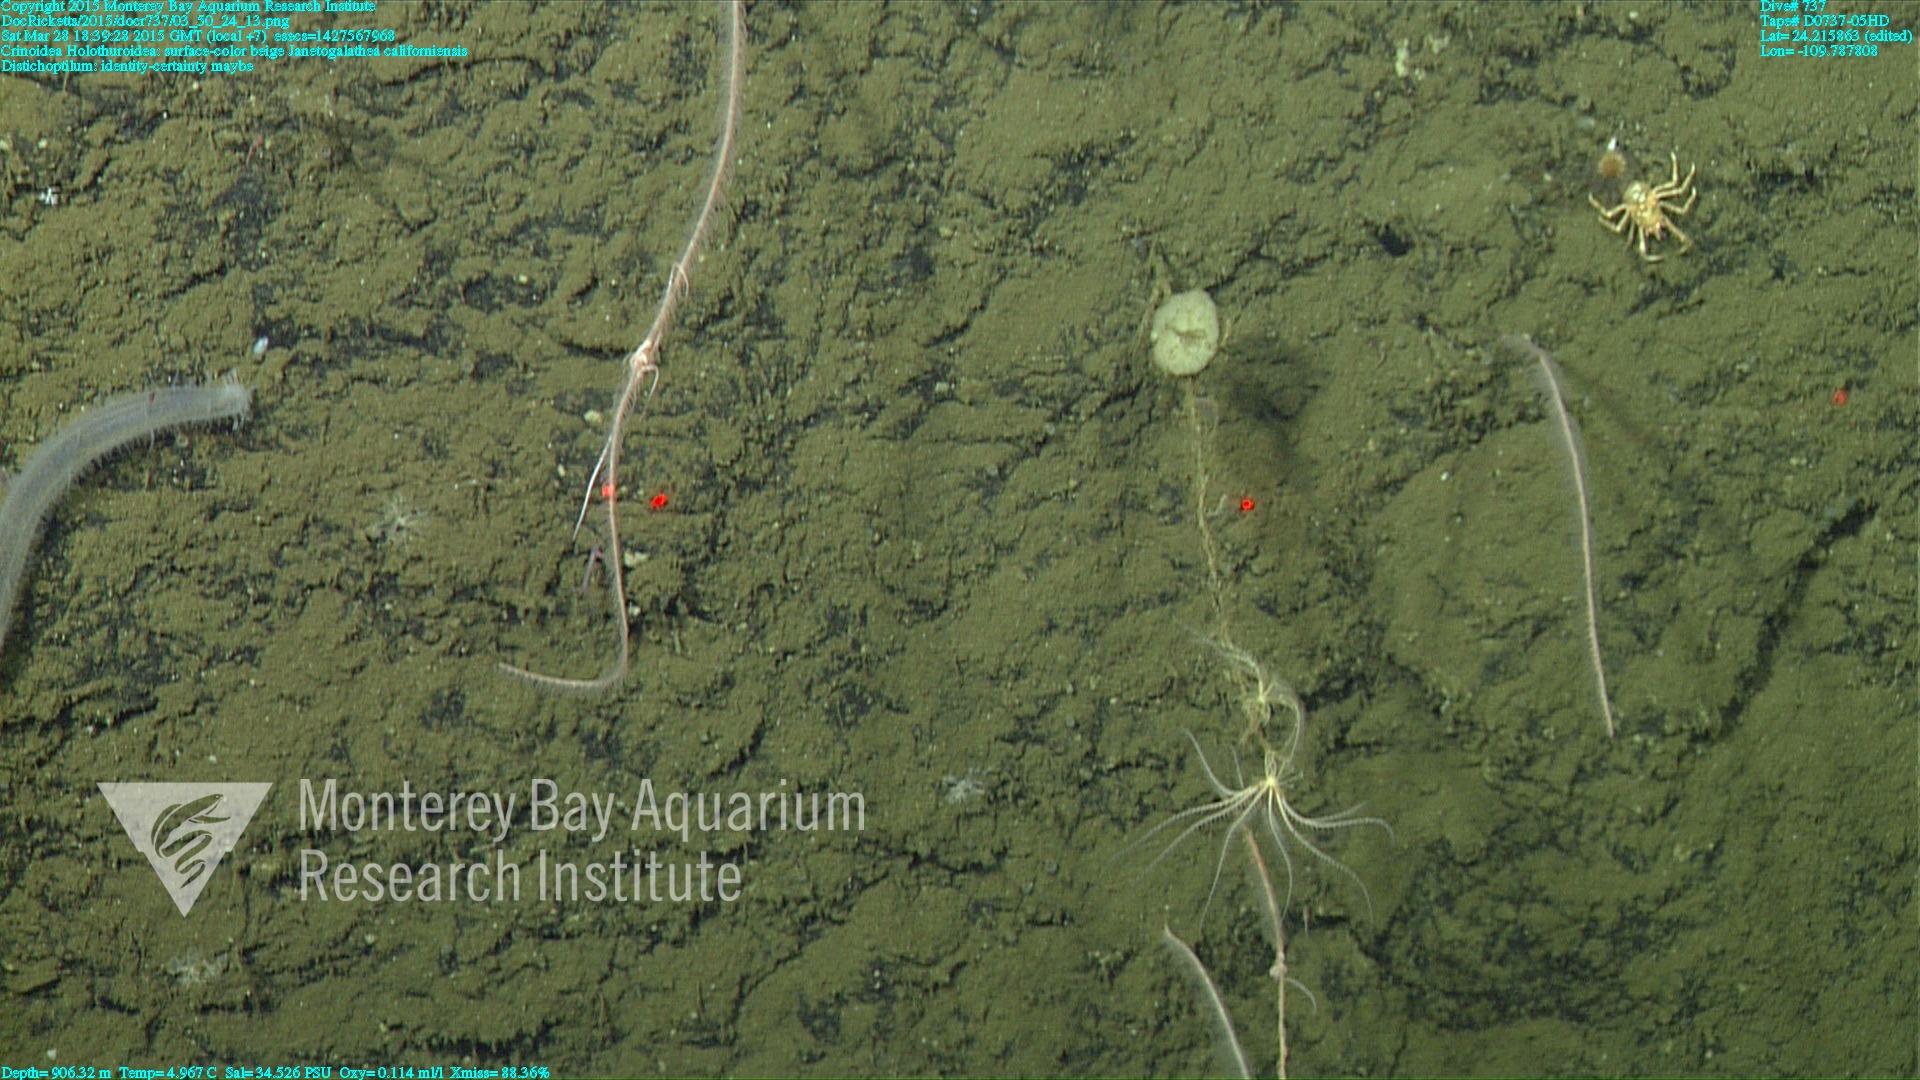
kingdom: Animalia
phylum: Cnidaria
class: Anthozoa
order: Scleralcyonacea
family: Protoptilidae
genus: Distichoptilum
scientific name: Distichoptilum
